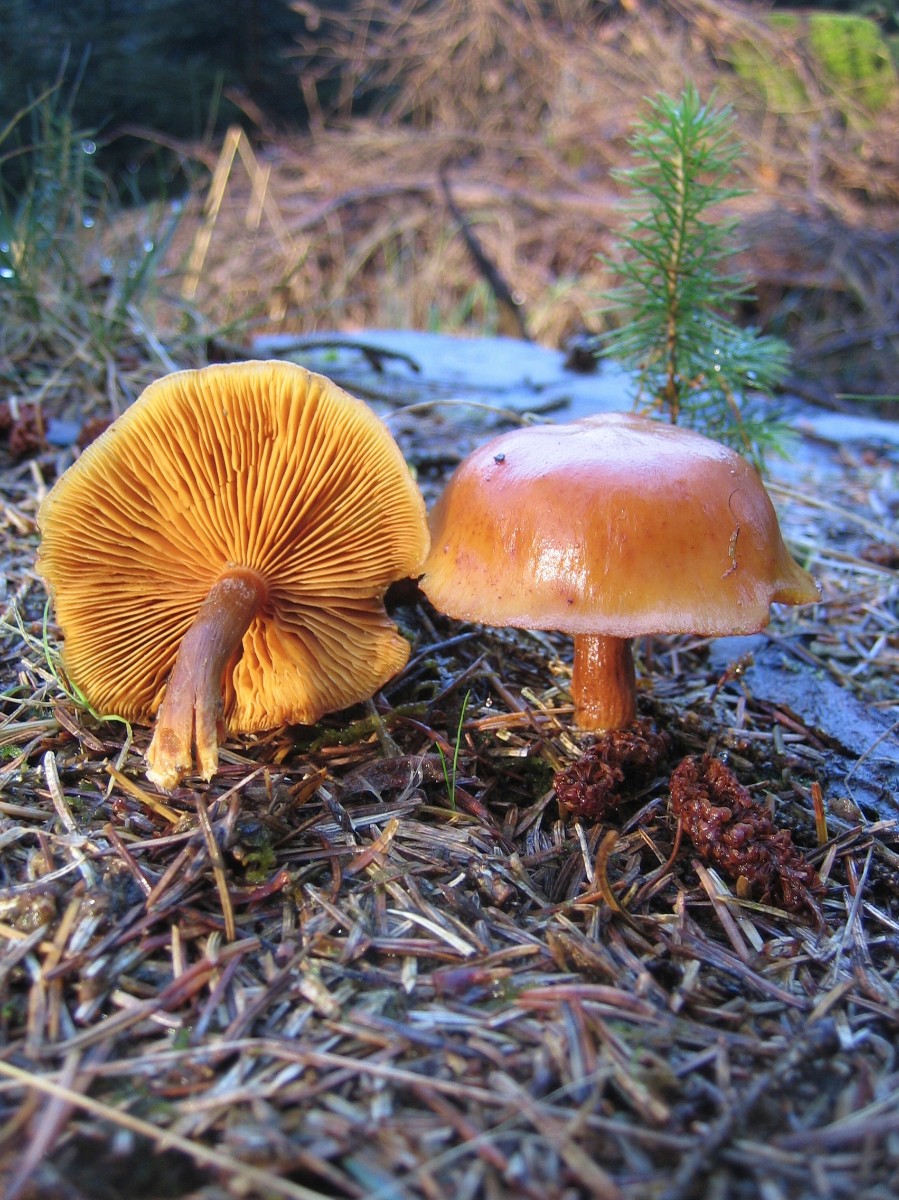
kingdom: Fungi
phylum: Basidiomycota
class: Agaricomycetes
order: Agaricales
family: Hymenogastraceae
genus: Gymnopilus
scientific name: Gymnopilus penetrans
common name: plettet flammehat
